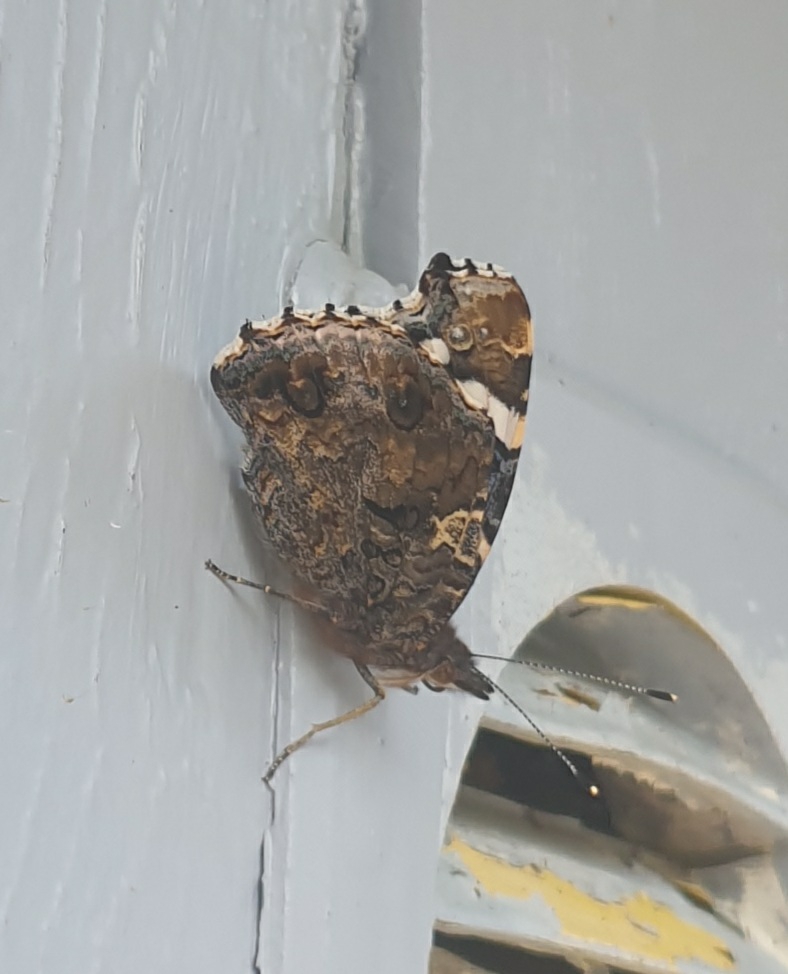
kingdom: Animalia
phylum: Arthropoda
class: Insecta
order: Lepidoptera
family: Nymphalidae
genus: Vanessa
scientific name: Vanessa atalanta
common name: Admiral
